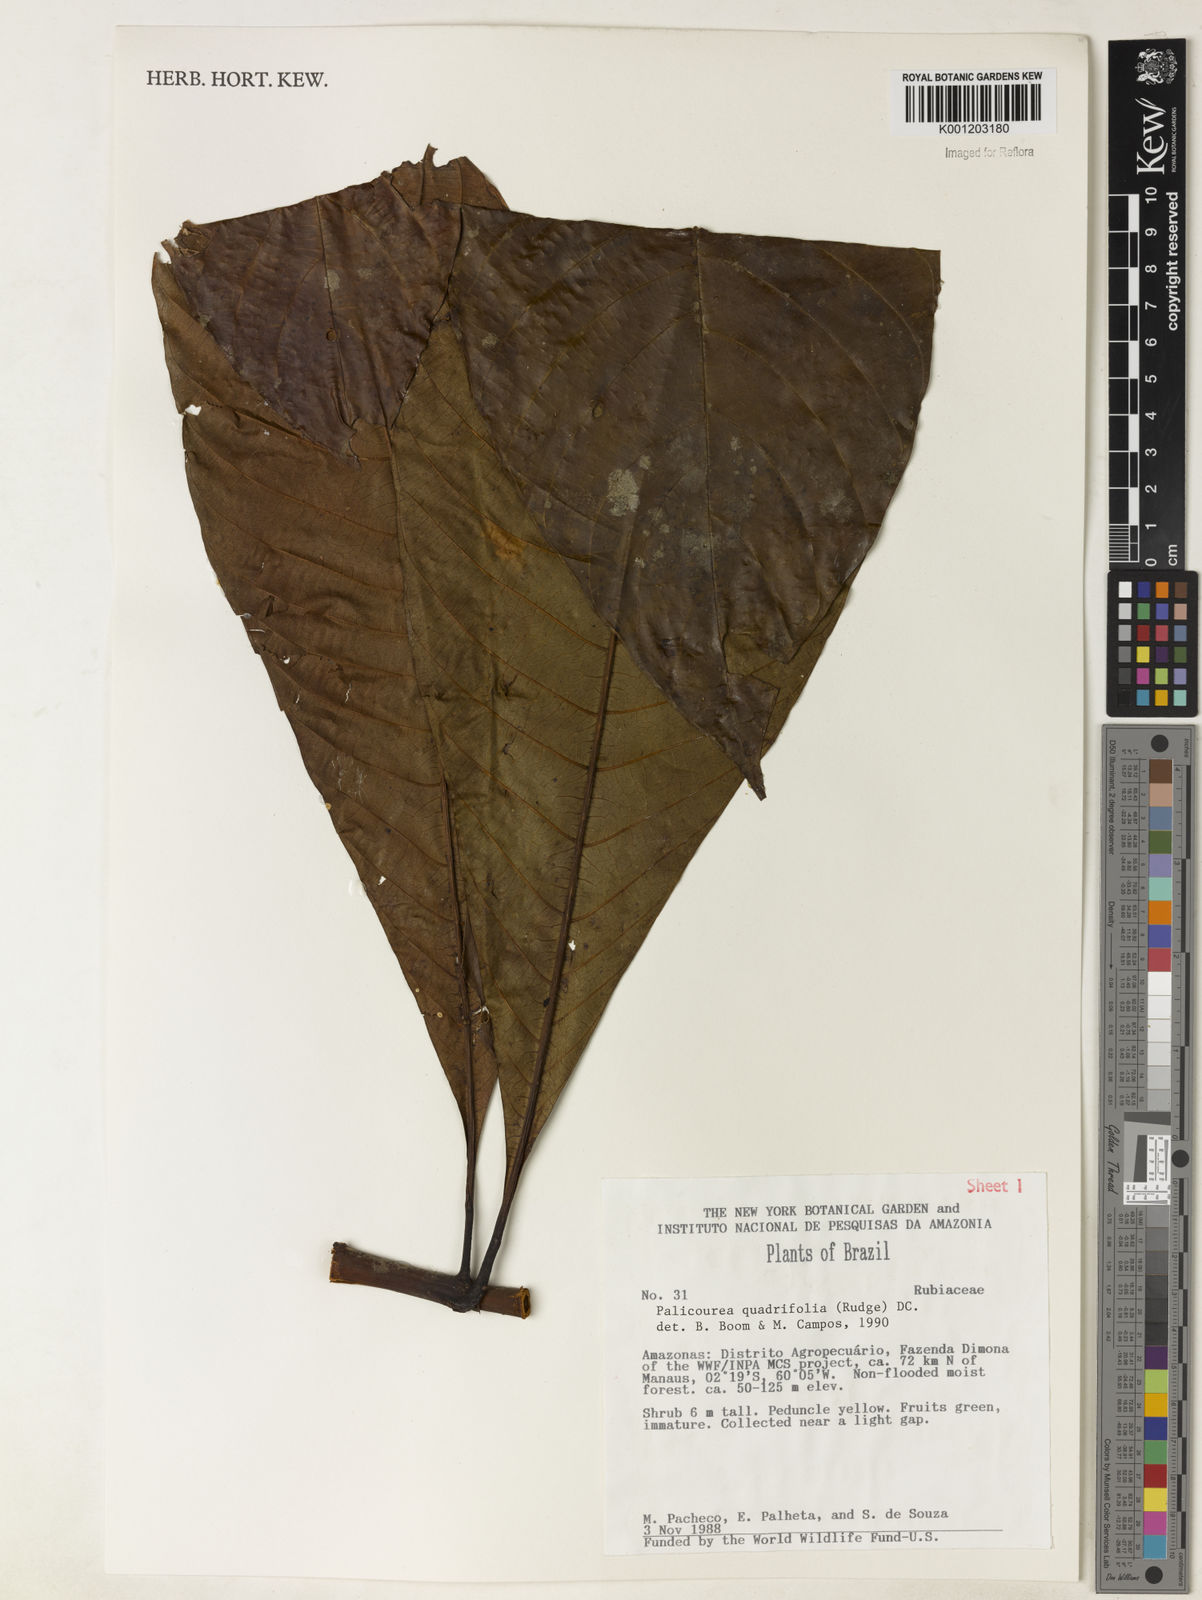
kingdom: Plantae
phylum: Tracheophyta
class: Magnoliopsida
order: Gentianales
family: Rubiaceae
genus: Palicourea
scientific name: Palicourea quadrifolia
